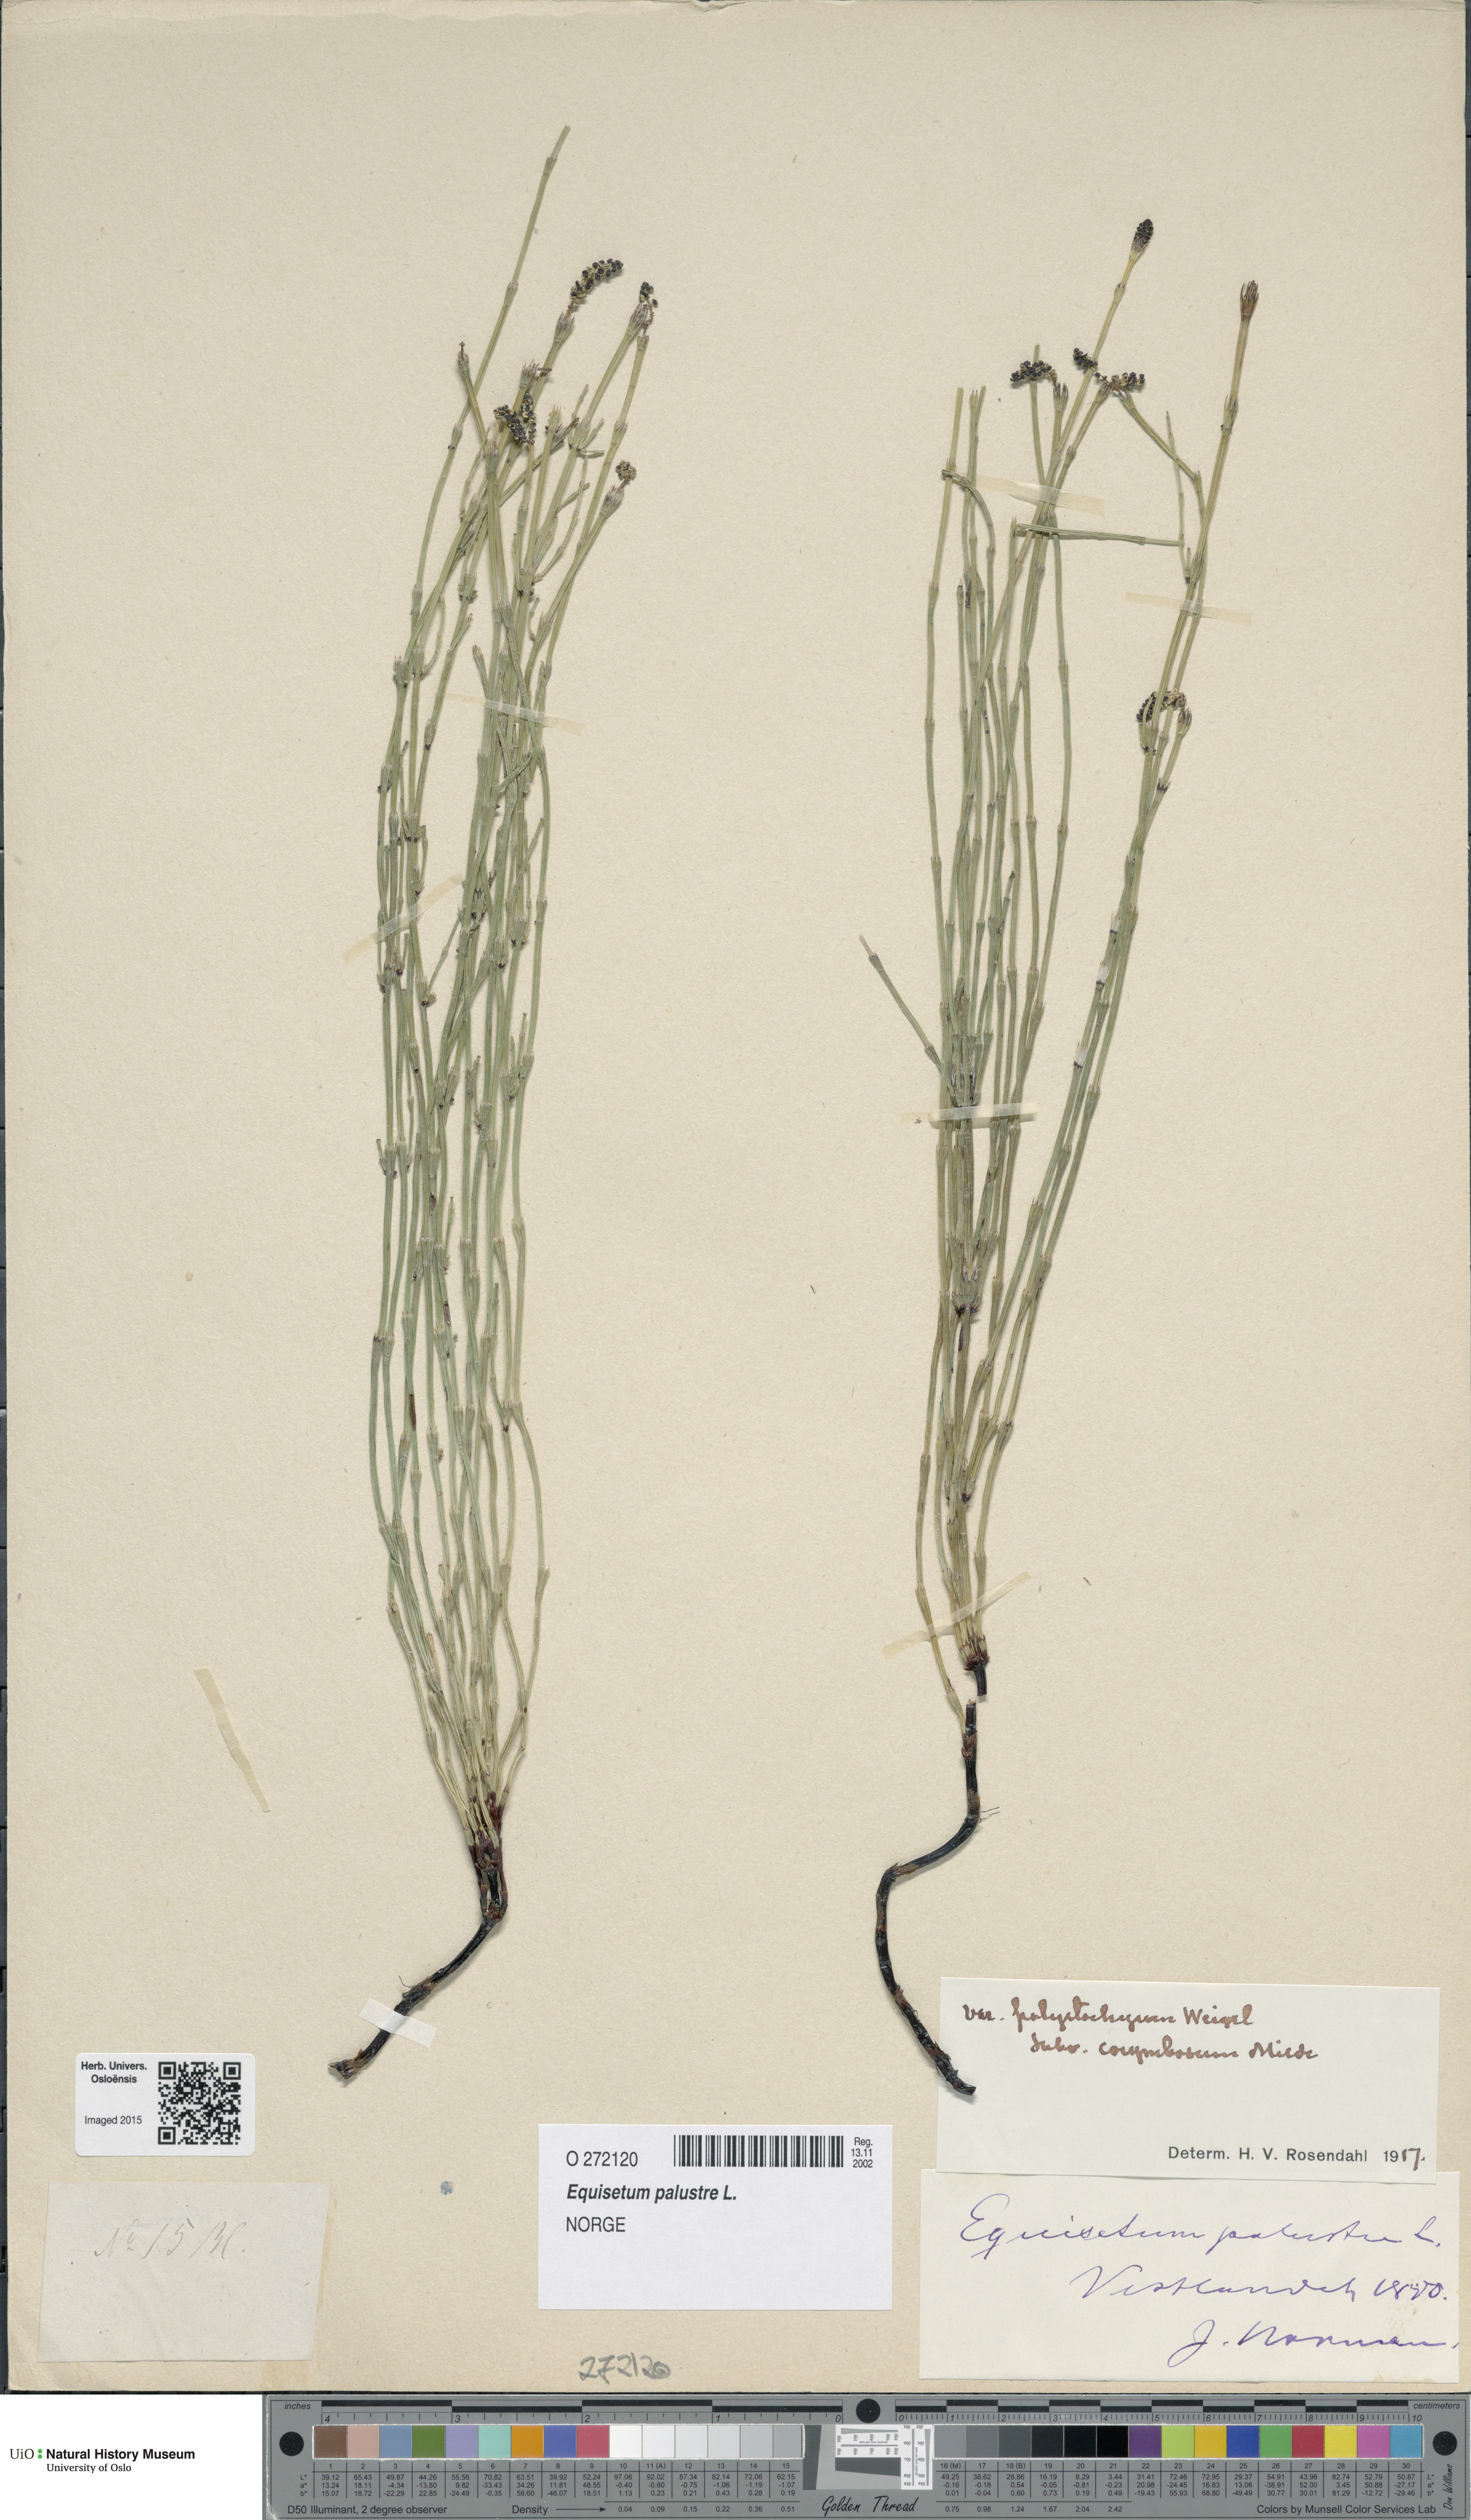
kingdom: Plantae
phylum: Tracheophyta
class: Polypodiopsida
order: Equisetales
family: Equisetaceae
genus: Equisetum
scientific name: Equisetum palustre
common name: Marsh horsetail
